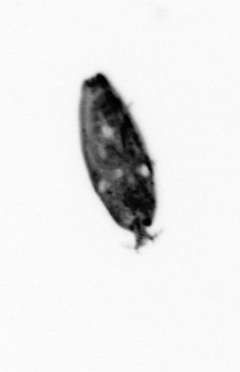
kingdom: Animalia
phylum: Arthropoda
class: Maxillopoda
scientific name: Maxillopoda
